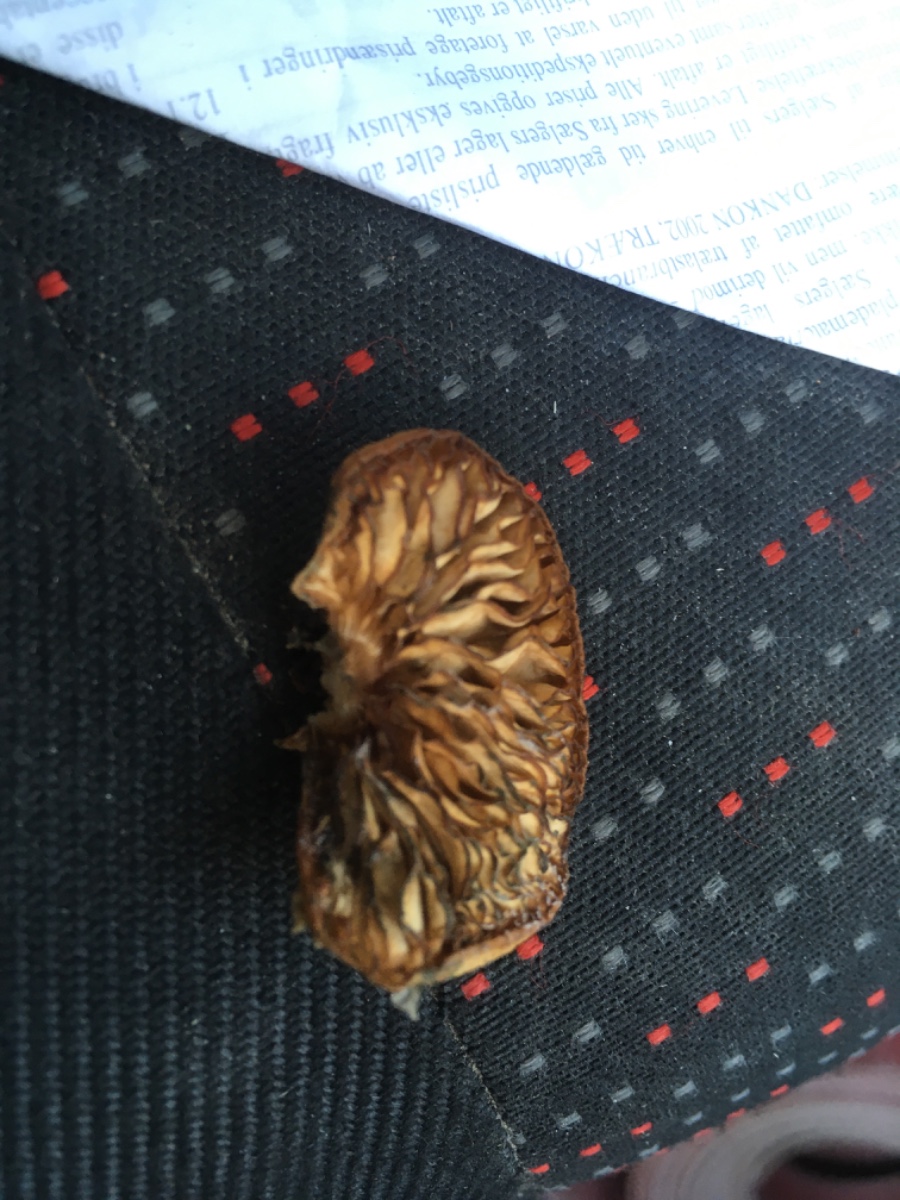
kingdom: Fungi
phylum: Basidiomycota
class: Agaricomycetes
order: Agaricales
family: Crepidotaceae
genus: Crepidotus
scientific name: Crepidotus
